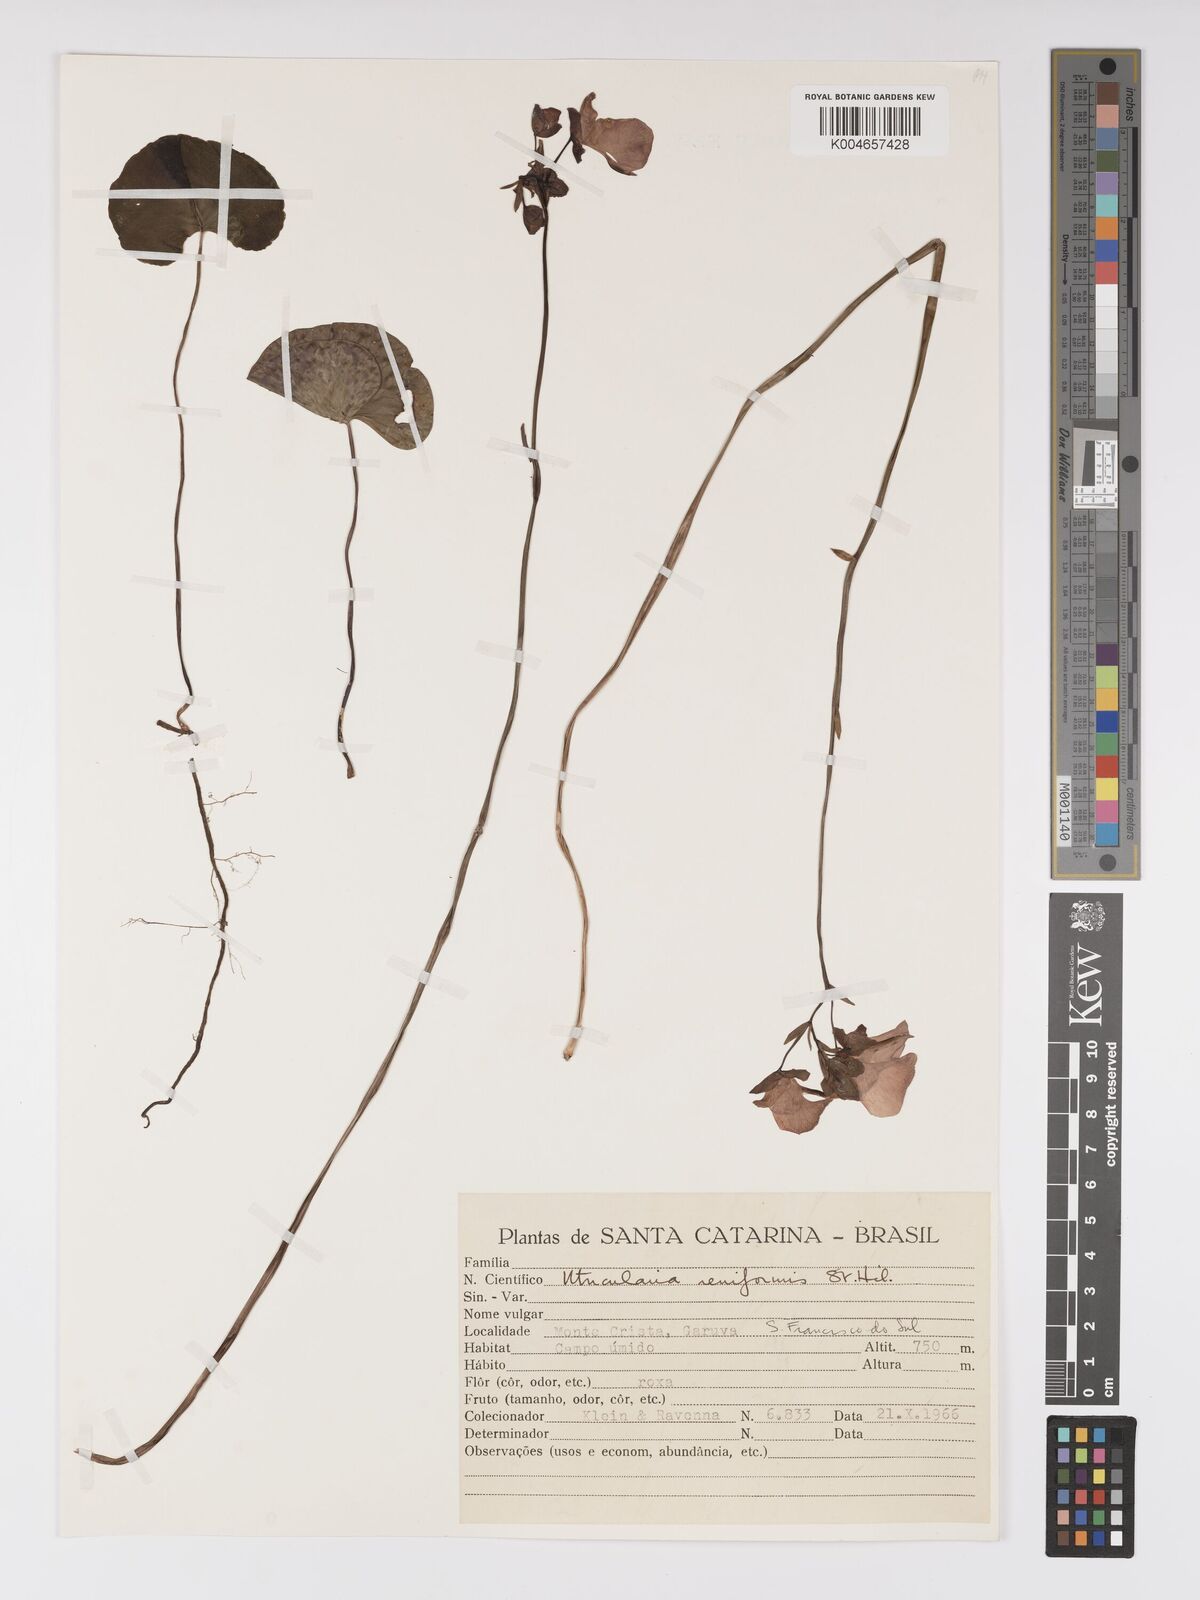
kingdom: Plantae
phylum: Tracheophyta
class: Magnoliopsida
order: Lamiales
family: Lentibulariaceae
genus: Utricularia
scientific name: Utricularia reniformis
